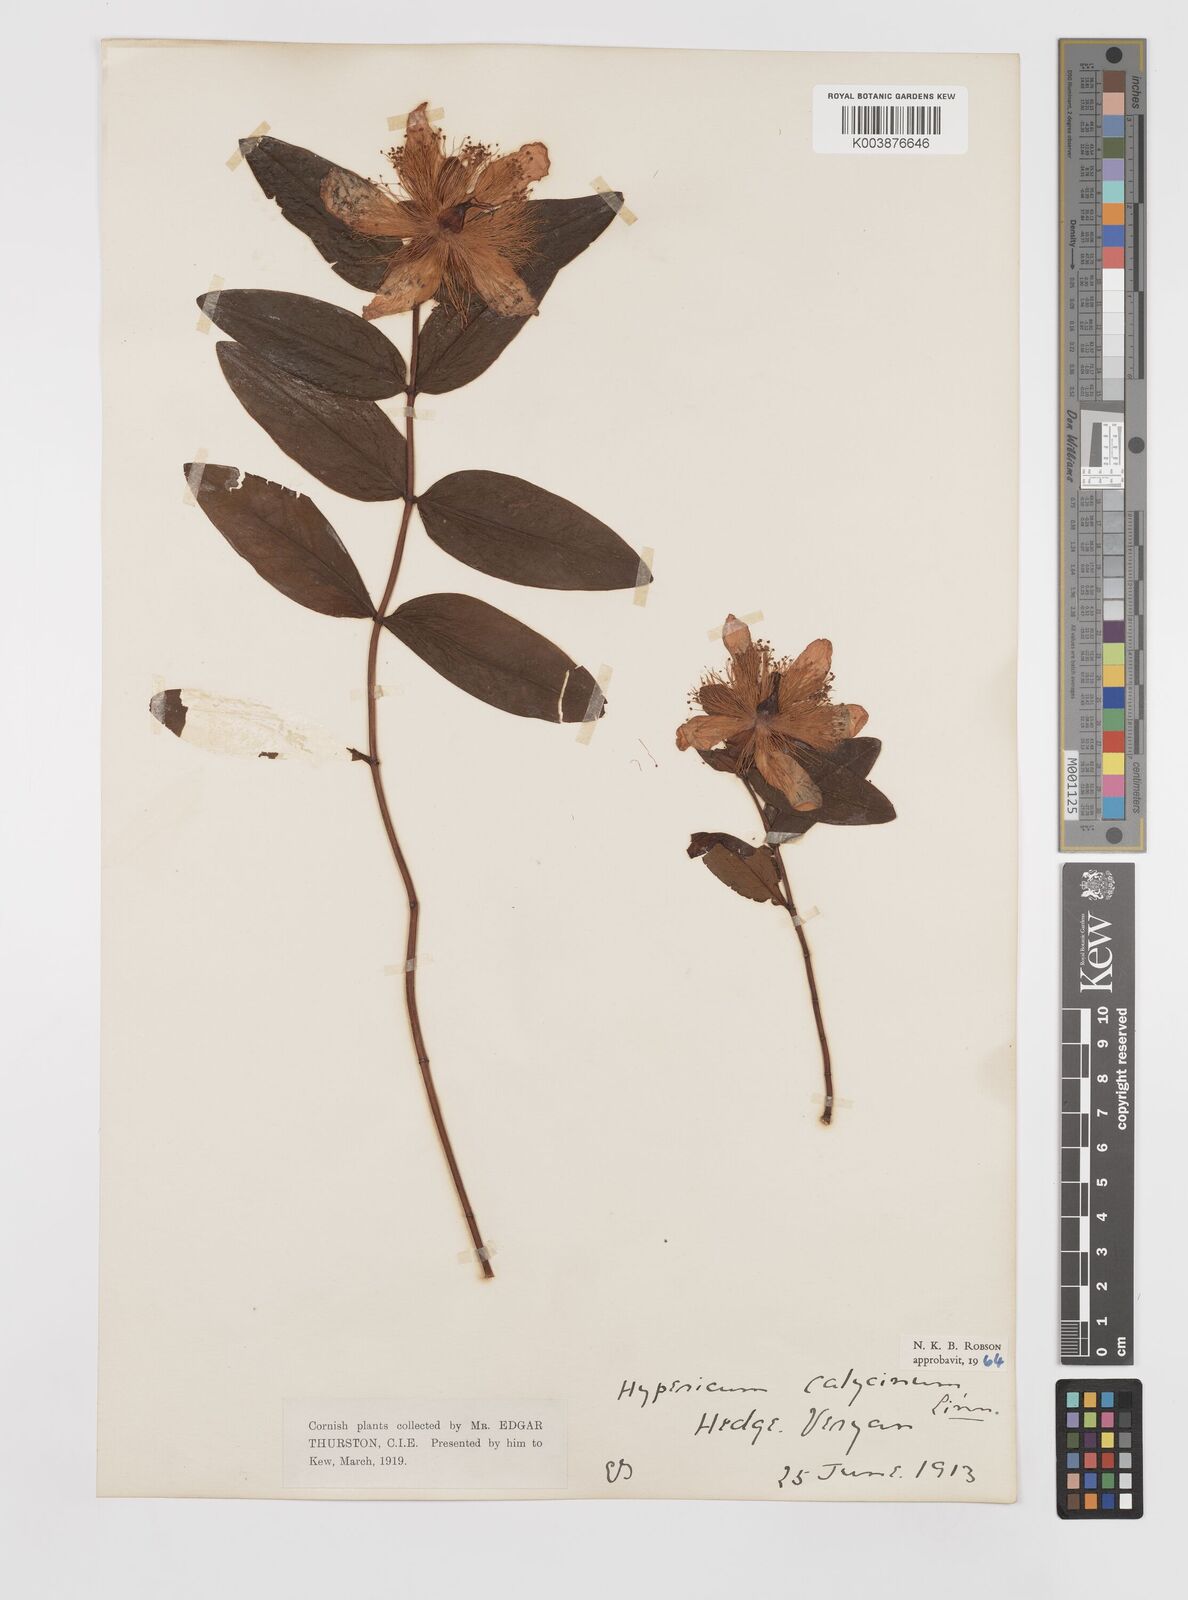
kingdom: Plantae
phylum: Tracheophyta
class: Magnoliopsida
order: Malpighiales
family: Hypericaceae
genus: Hypericum
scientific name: Hypericum calycinum
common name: Rose-of-sharon
